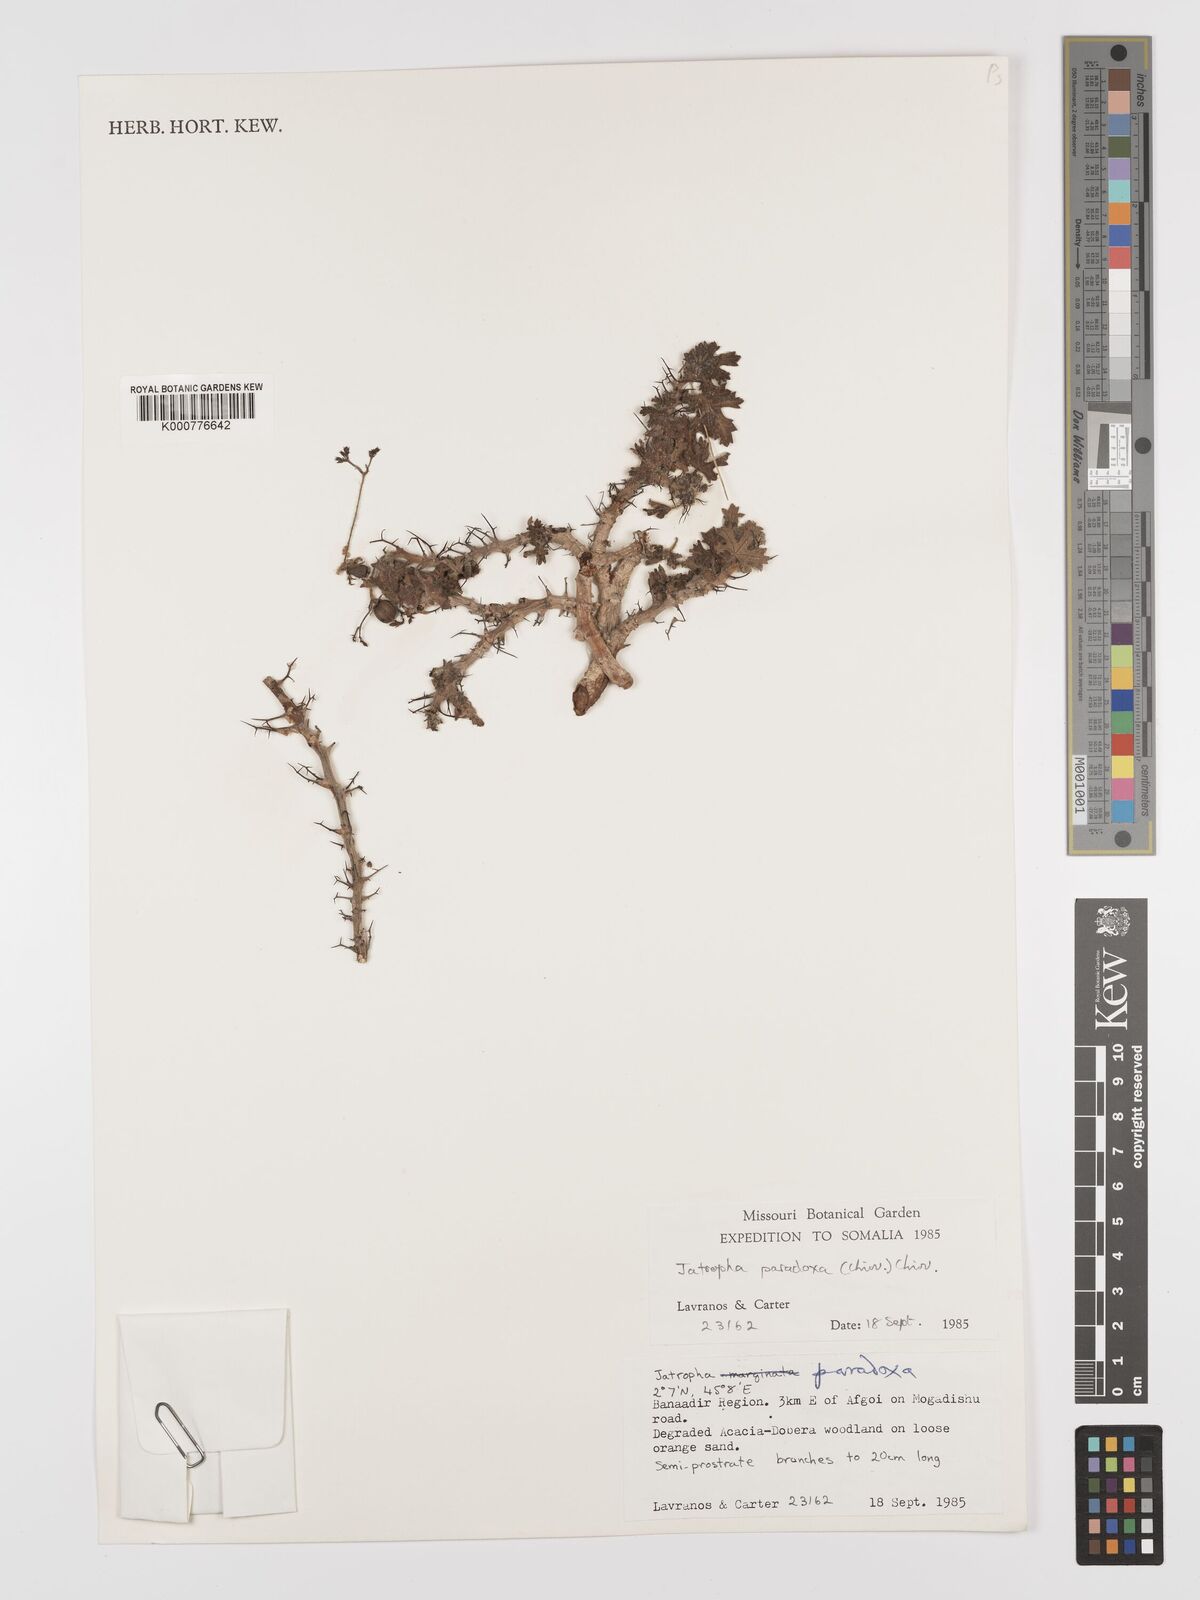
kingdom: Plantae
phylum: Tracheophyta
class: Magnoliopsida
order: Malpighiales
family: Euphorbiaceae
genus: Jatropha
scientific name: Jatropha paradoxa
